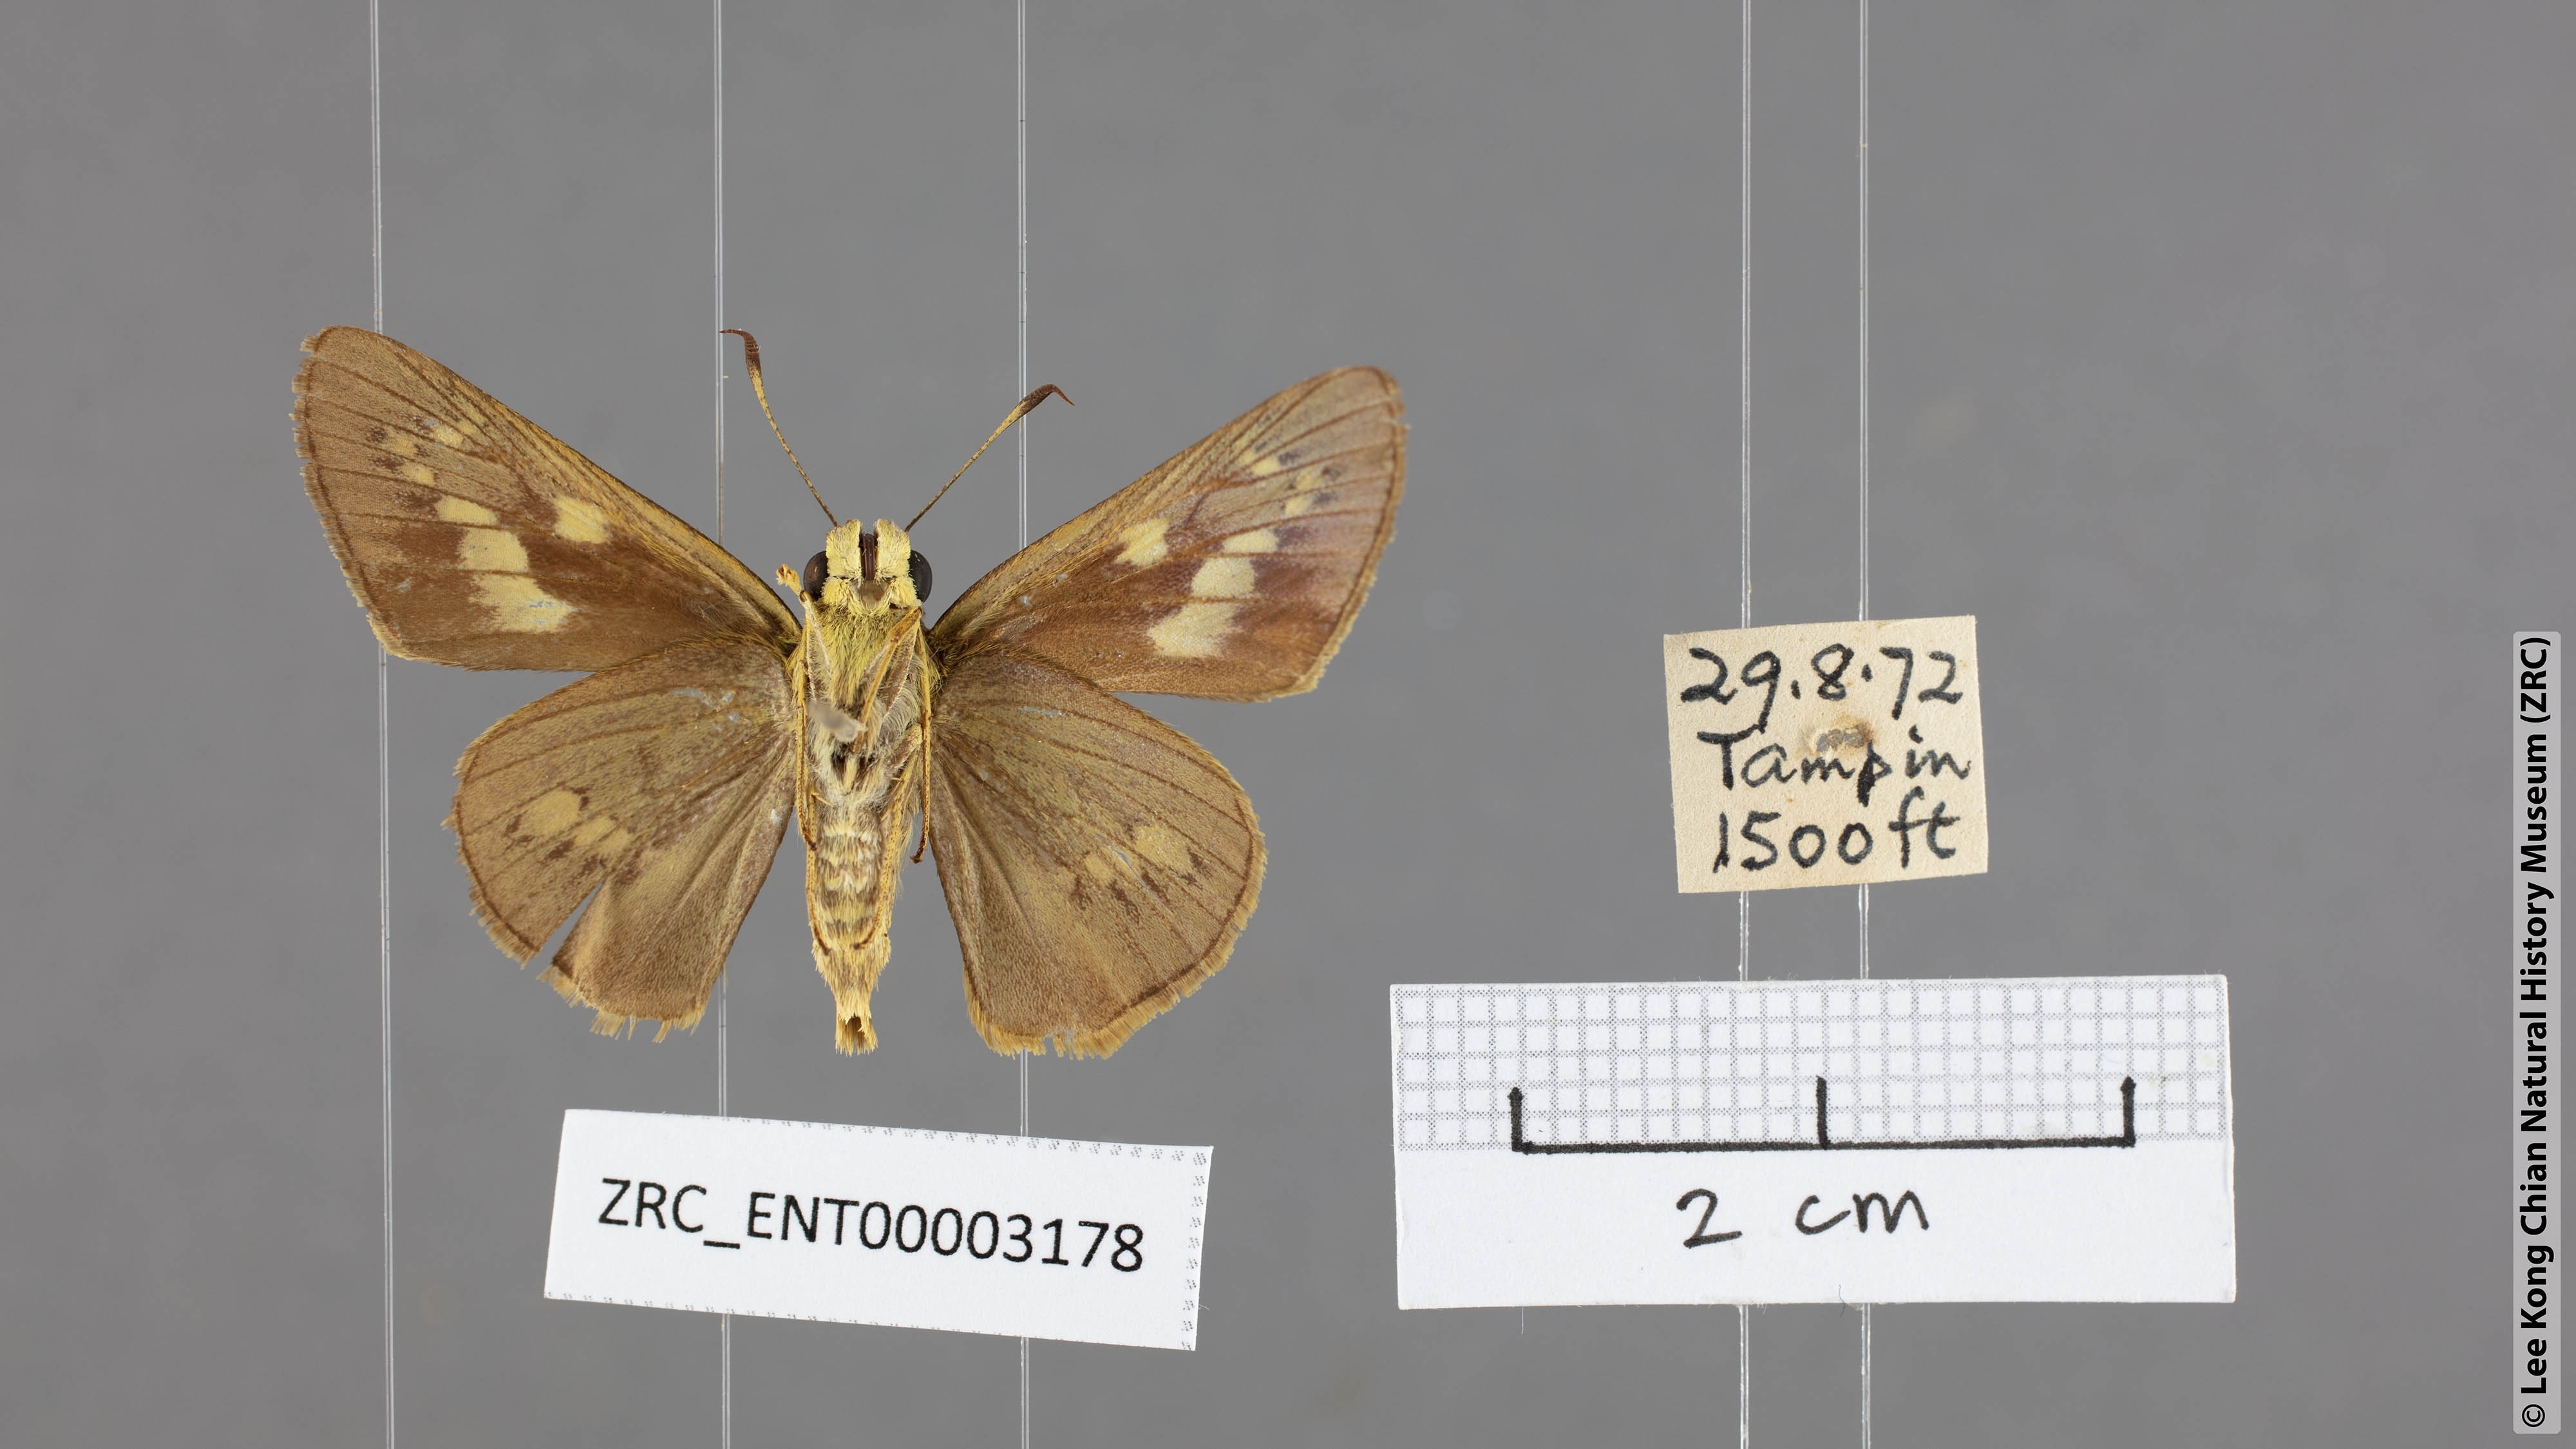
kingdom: Animalia
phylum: Arthropoda
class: Insecta
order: Lepidoptera
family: Hesperiidae
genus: Cephrenes
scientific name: Cephrenes
